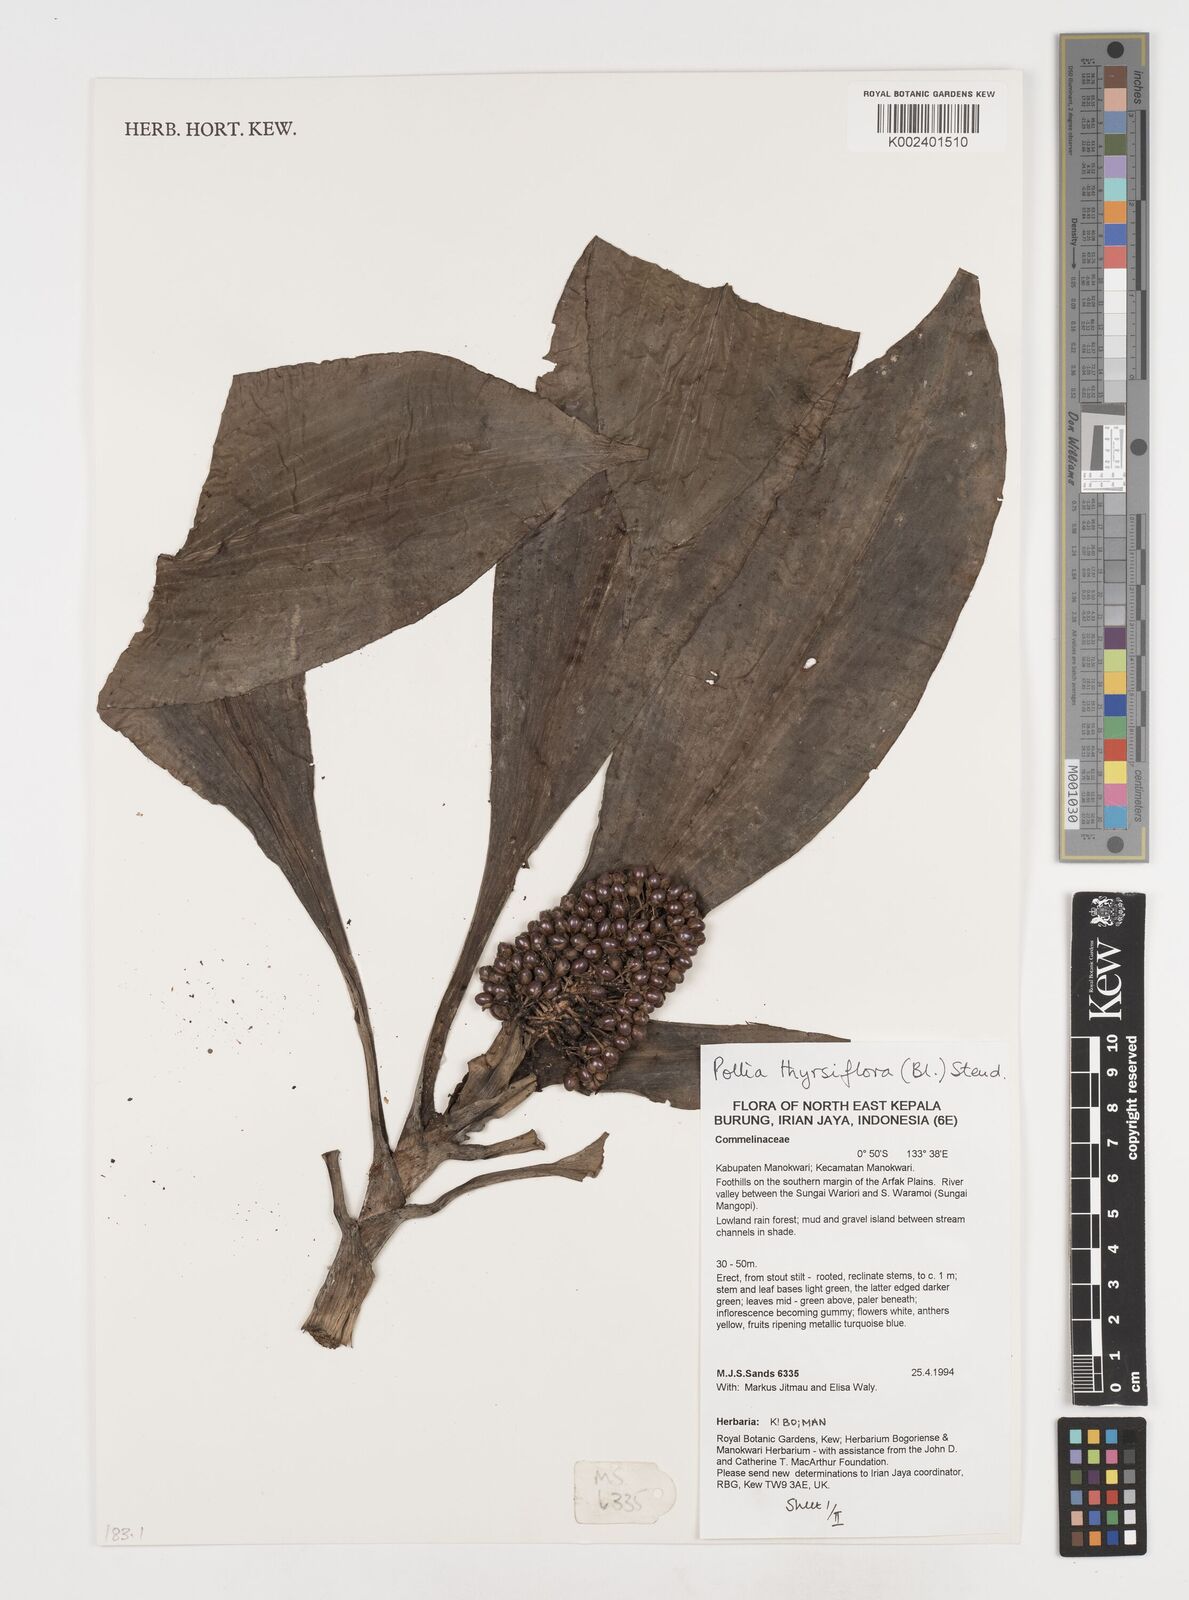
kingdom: Plantae
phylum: Tracheophyta
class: Liliopsida
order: Commelinales
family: Commelinaceae
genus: Pollia
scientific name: Pollia thyrsiflora
